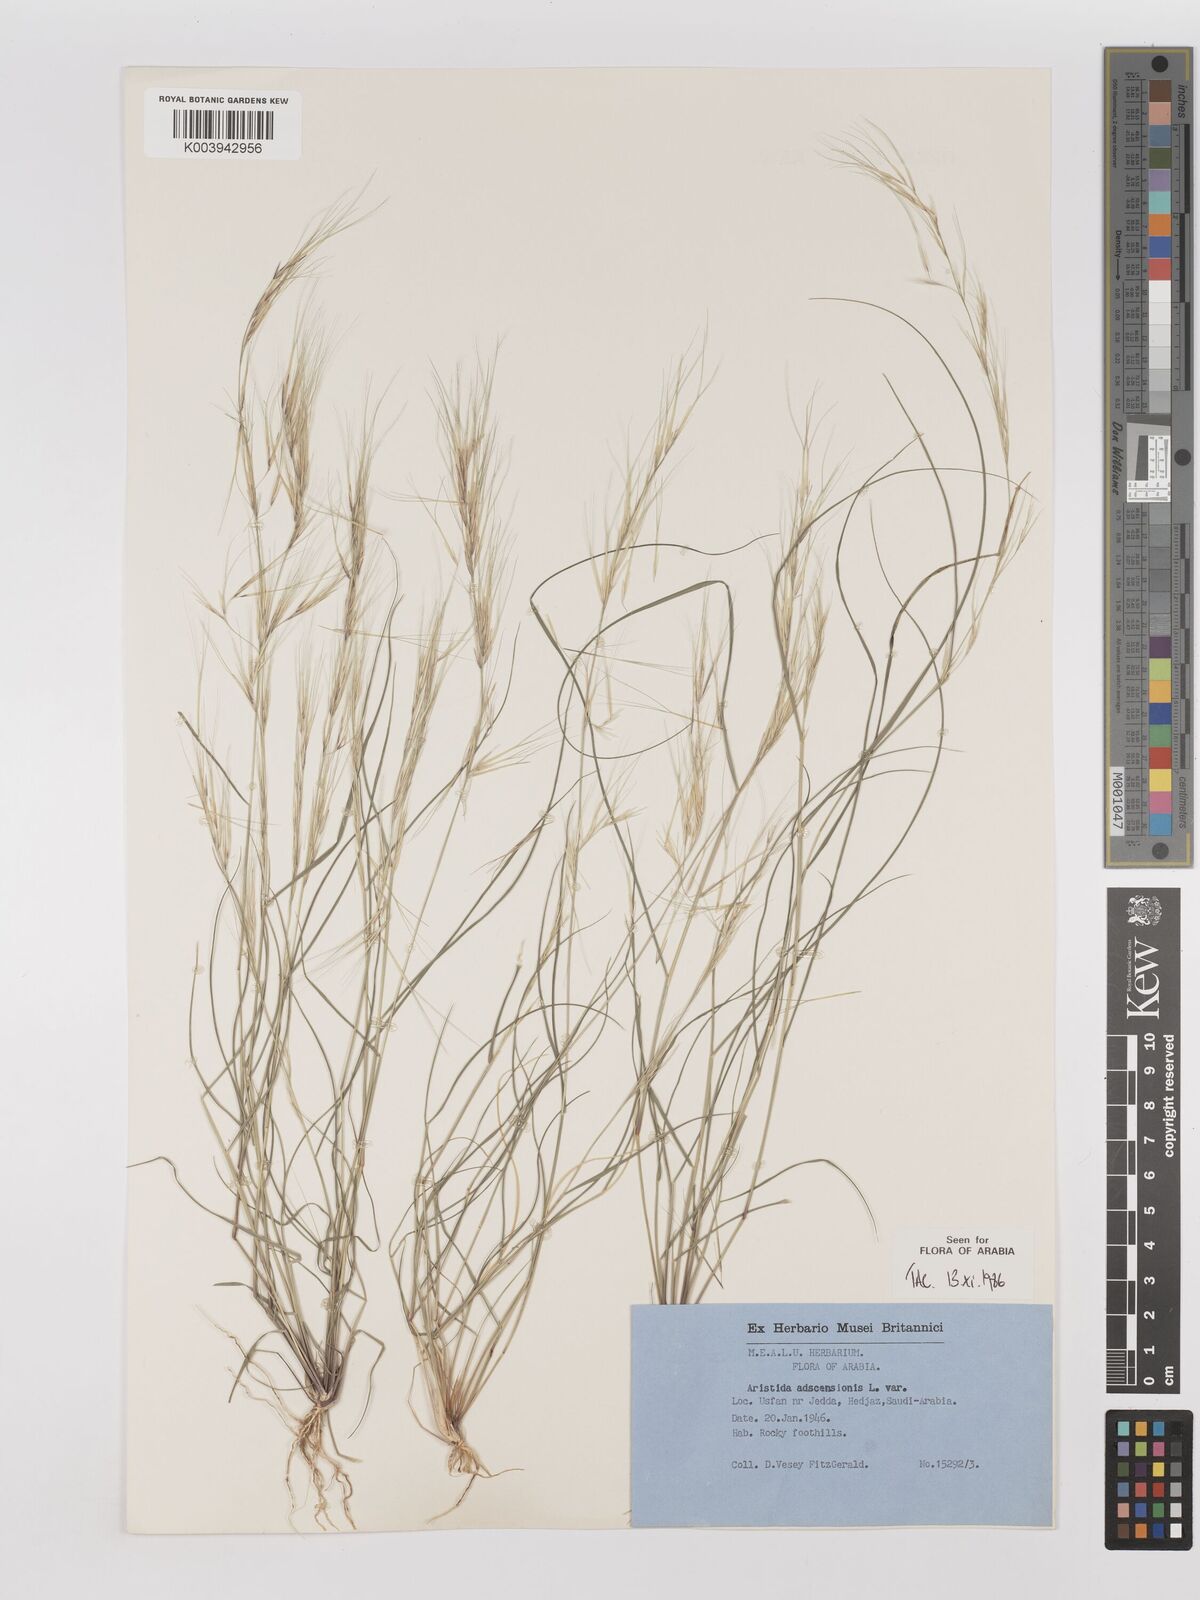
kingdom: Plantae
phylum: Tracheophyta
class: Liliopsida
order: Poales
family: Poaceae
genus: Aristida
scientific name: Aristida adscensionis
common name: Sixweeks threeawn
